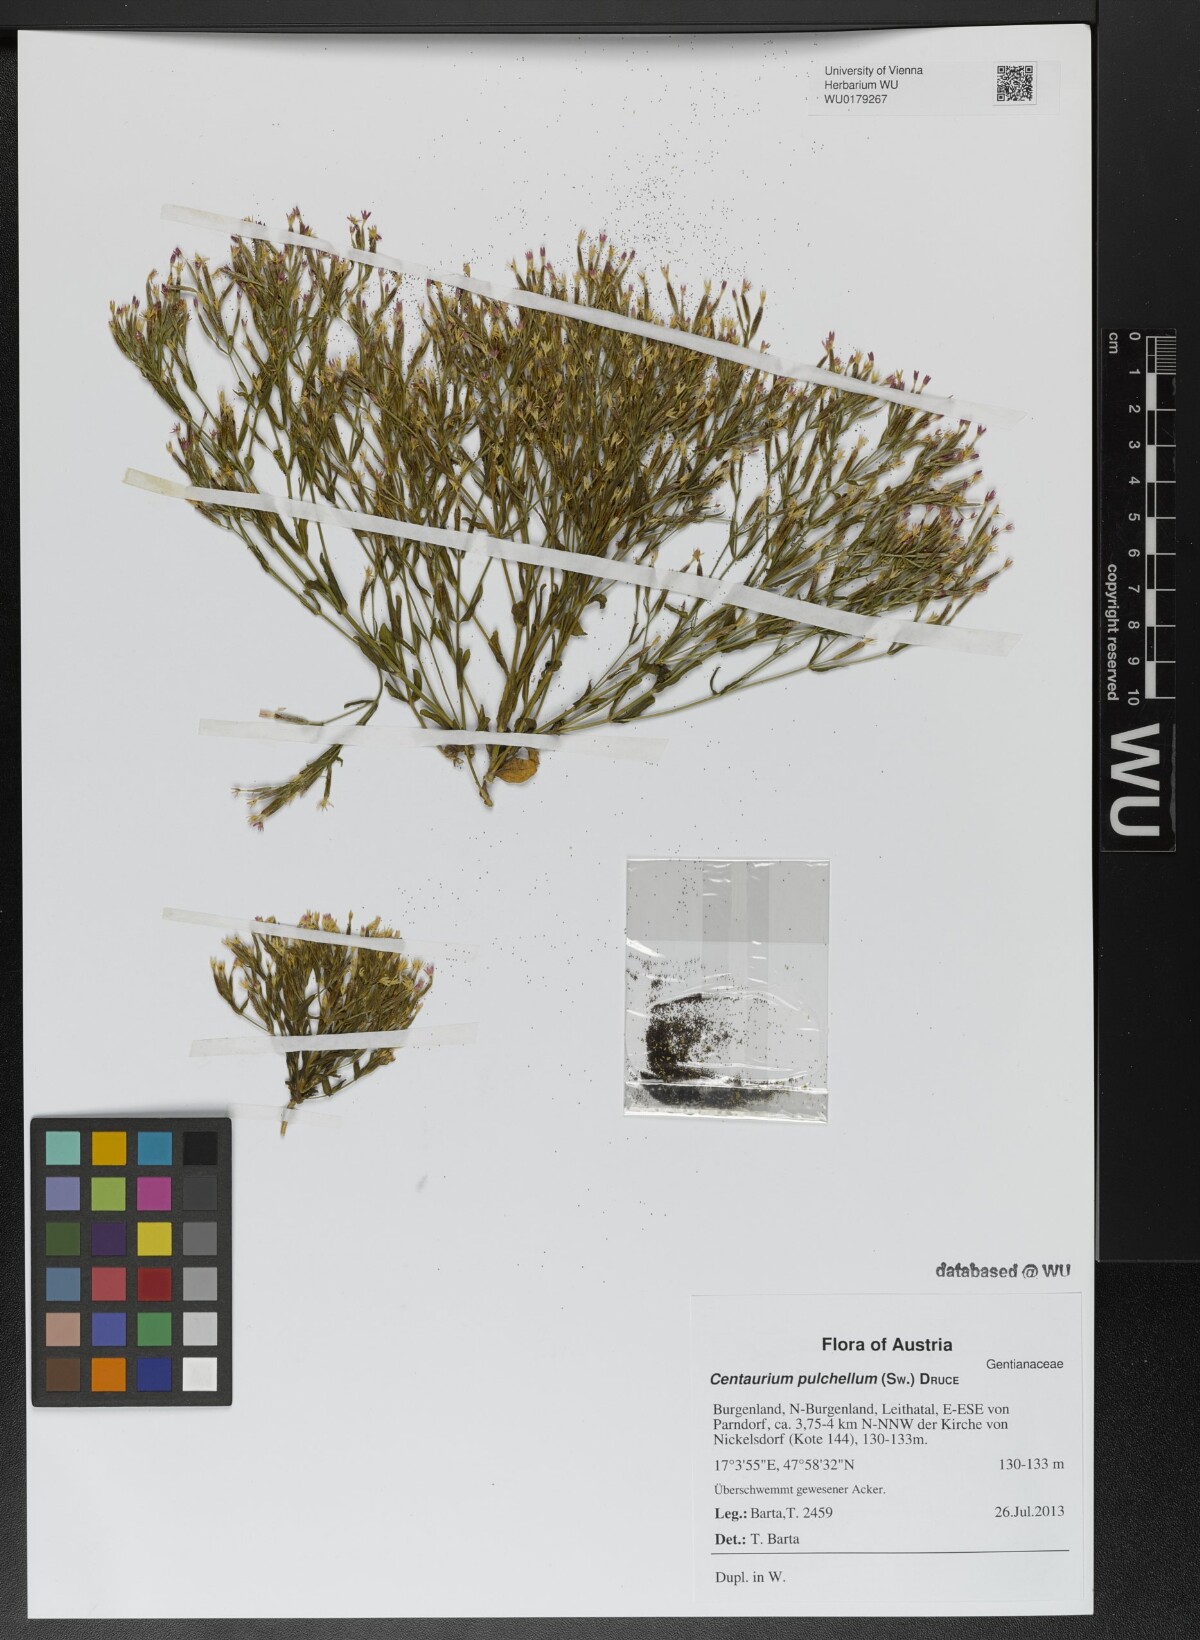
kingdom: Plantae
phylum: Tracheophyta
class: Magnoliopsida
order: Gentianales
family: Gentianaceae
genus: Centaurium
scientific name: Centaurium pulchellum
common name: Lesser centaury
